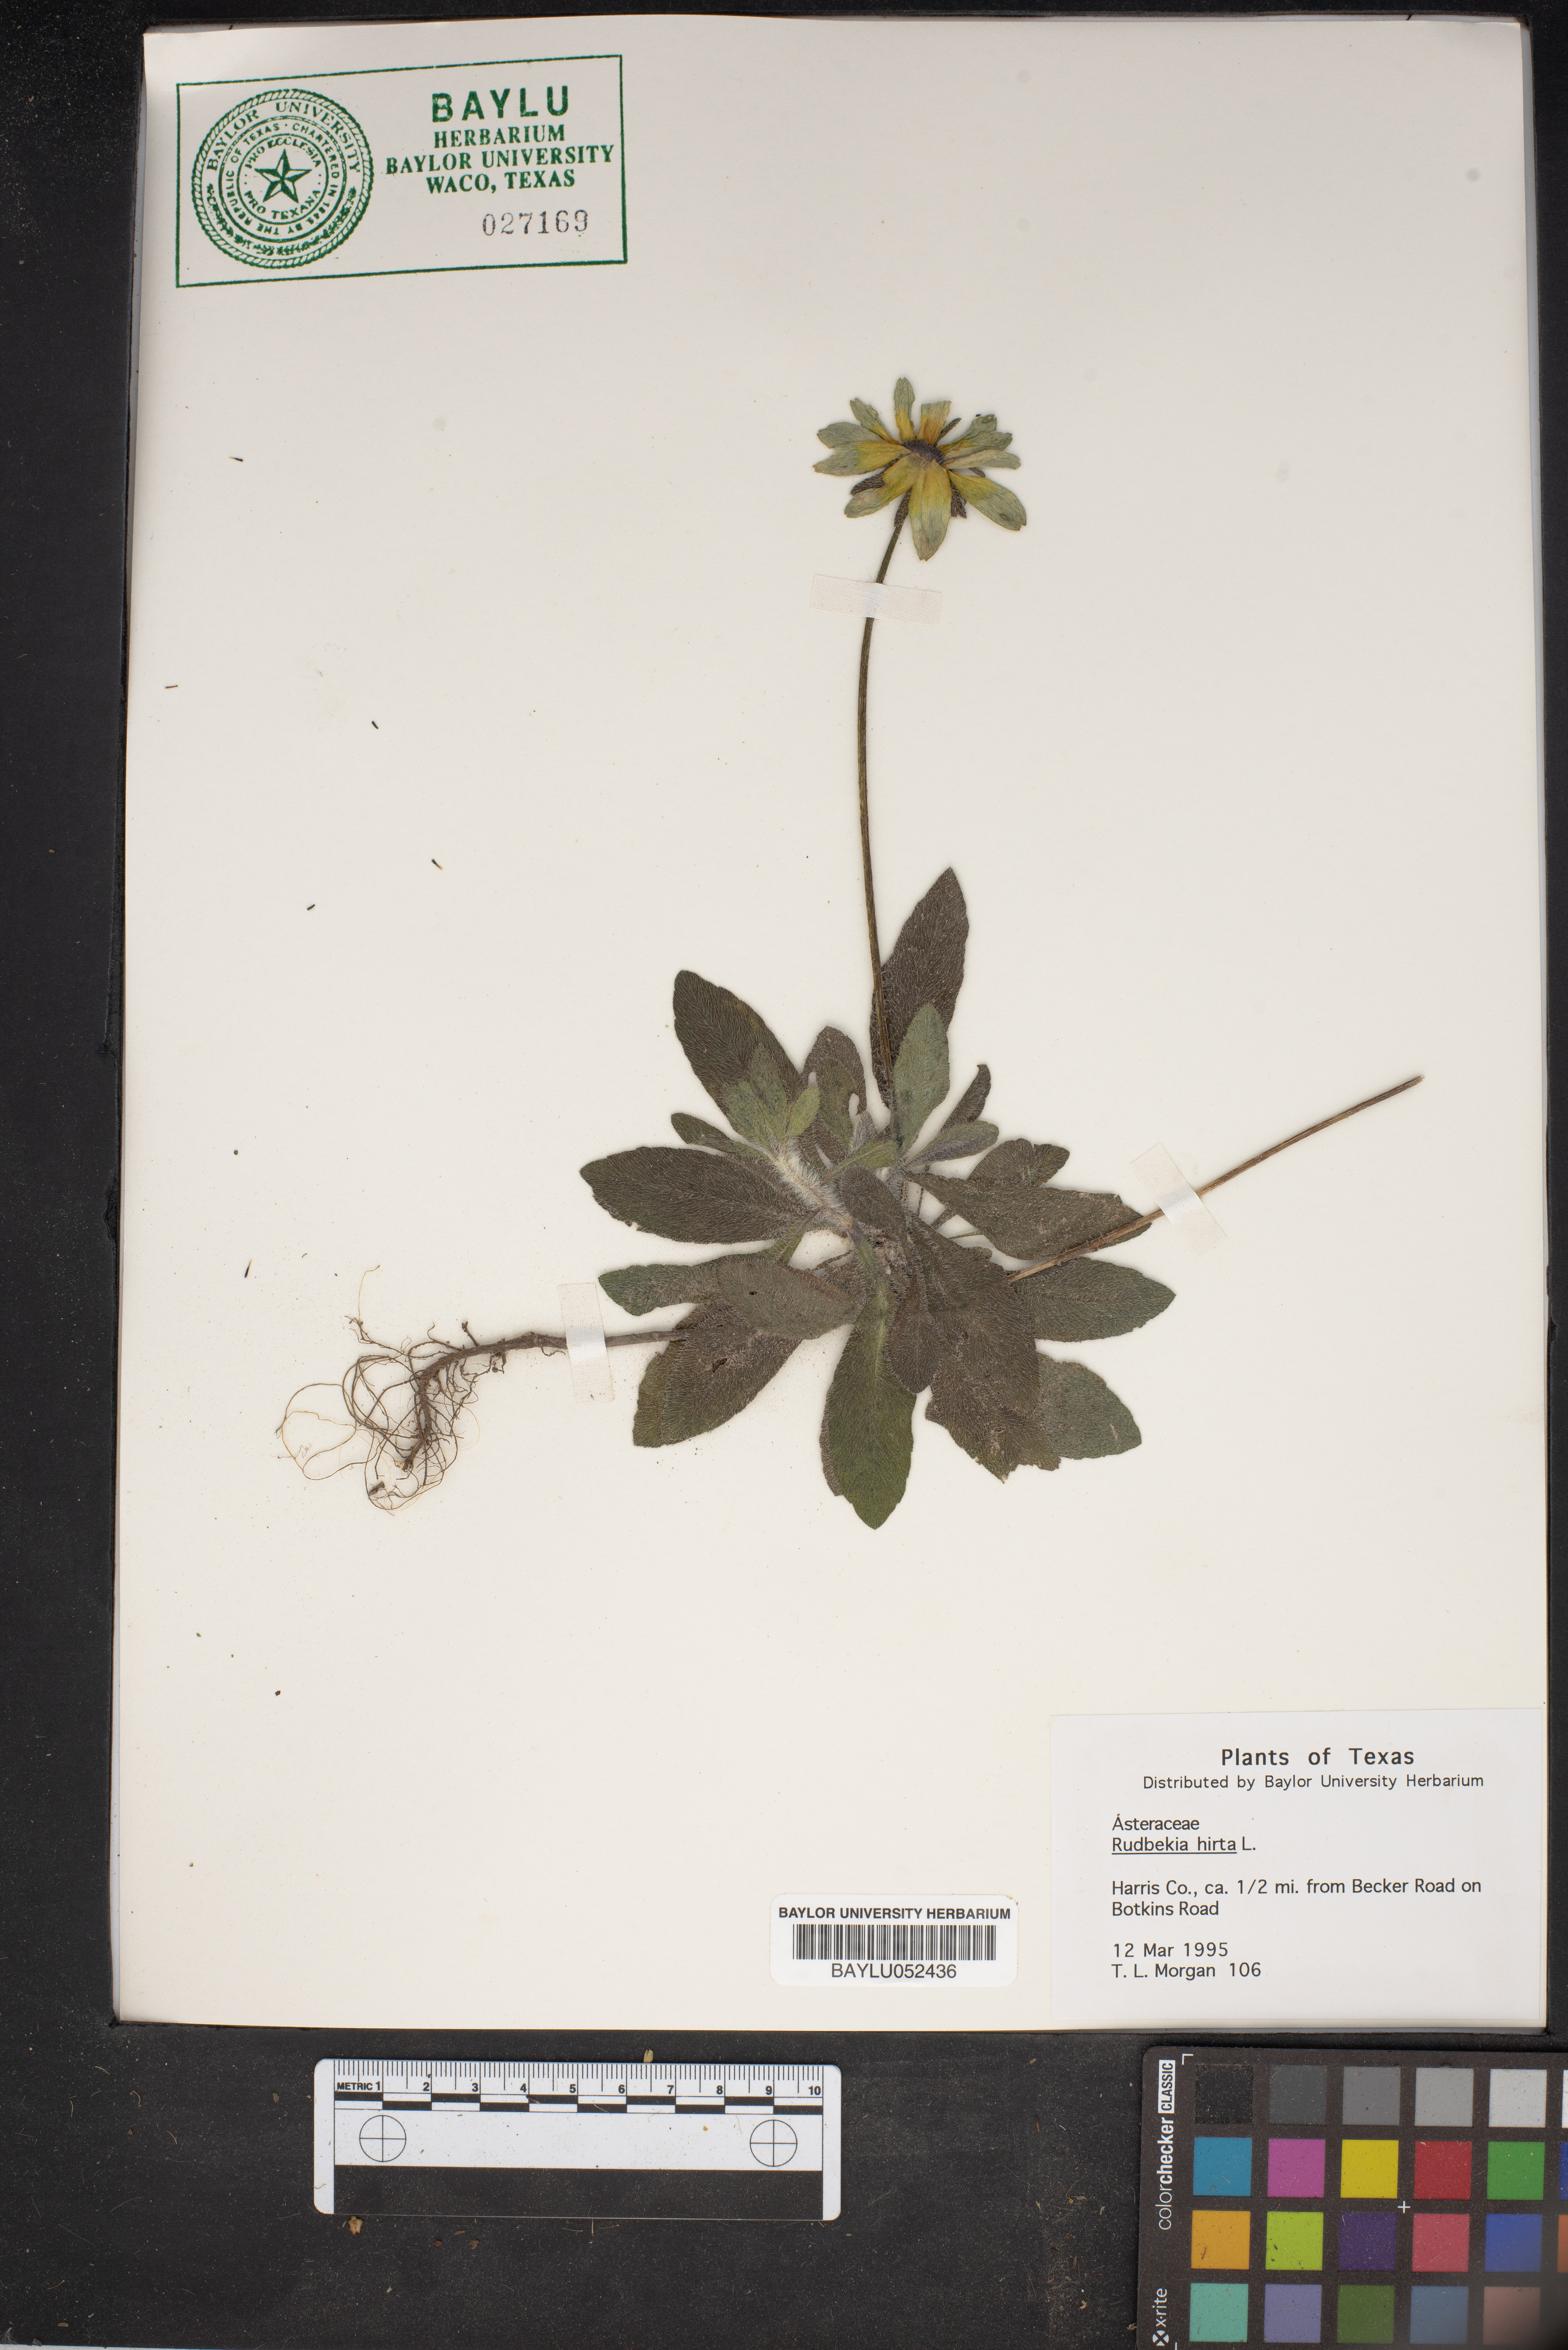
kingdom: Plantae
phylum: Tracheophyta
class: Magnoliopsida
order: Asterales
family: Asteraceae
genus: Rudbeckia
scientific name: Rudbeckia hirta
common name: Black-eyed-susan
